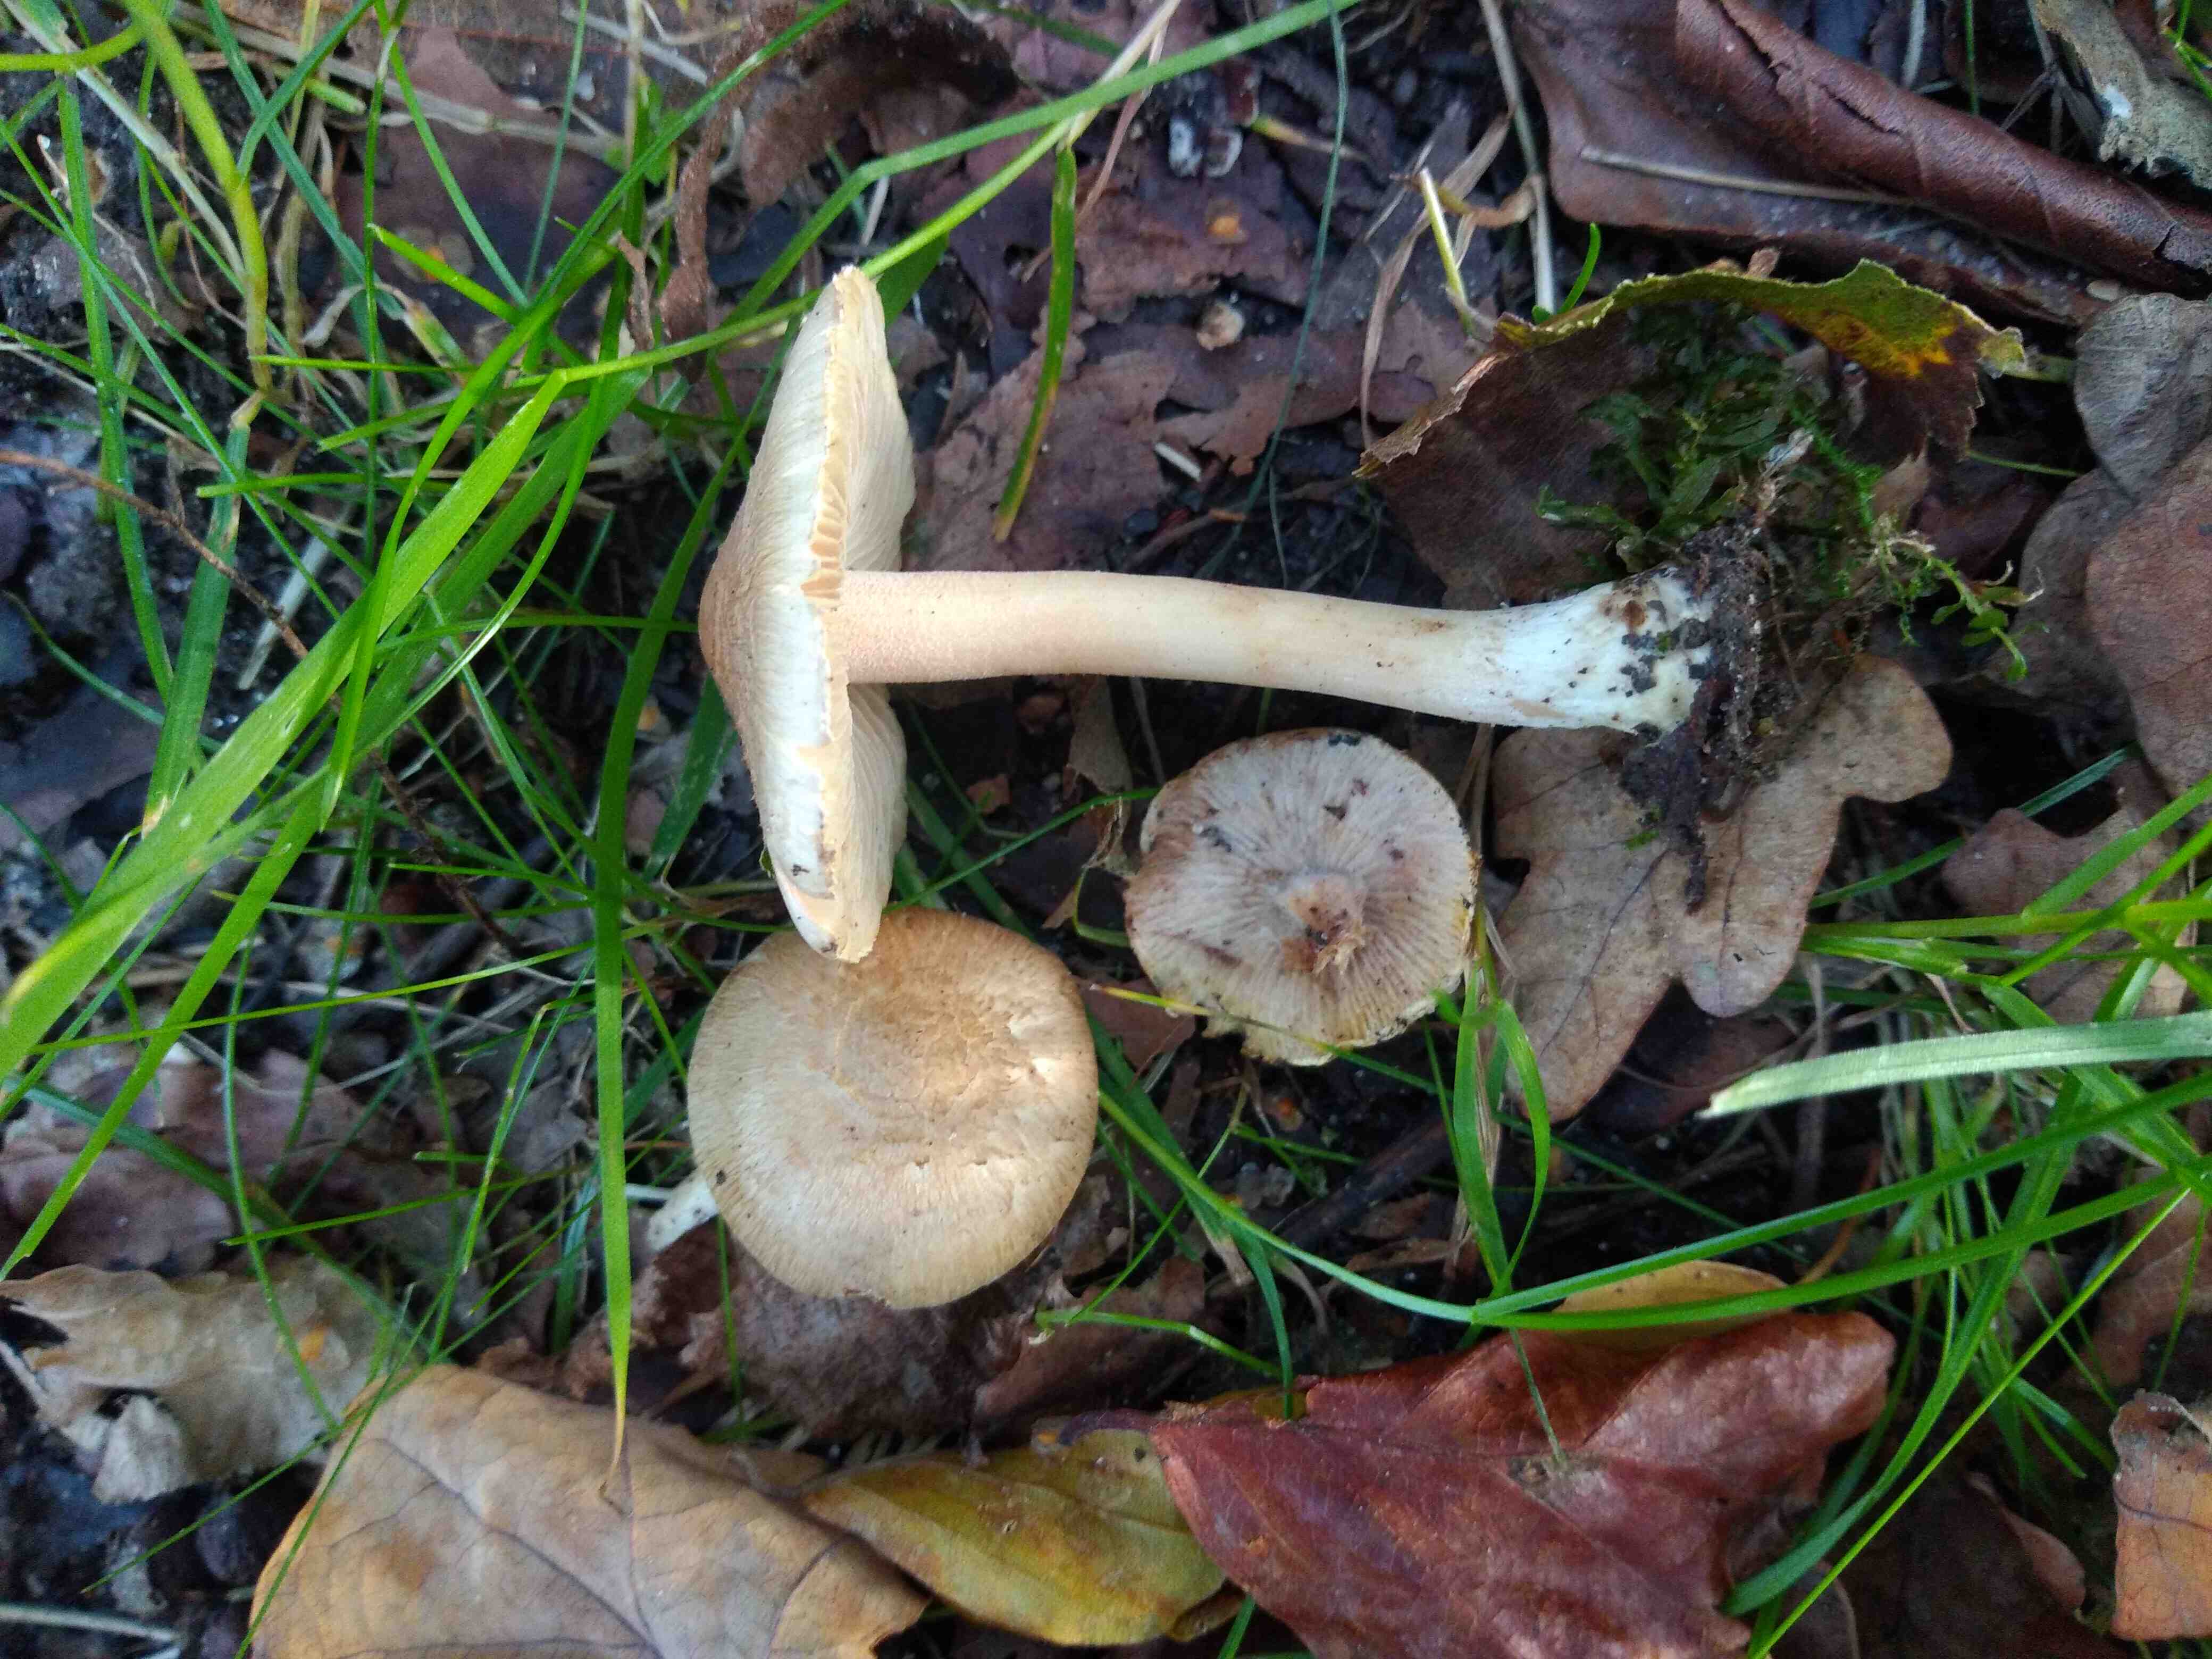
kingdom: Fungi
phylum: Basidiomycota
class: Agaricomycetes
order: Agaricales
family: Inocybaceae
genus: Inocybe
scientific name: Inocybe
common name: trævlhat
